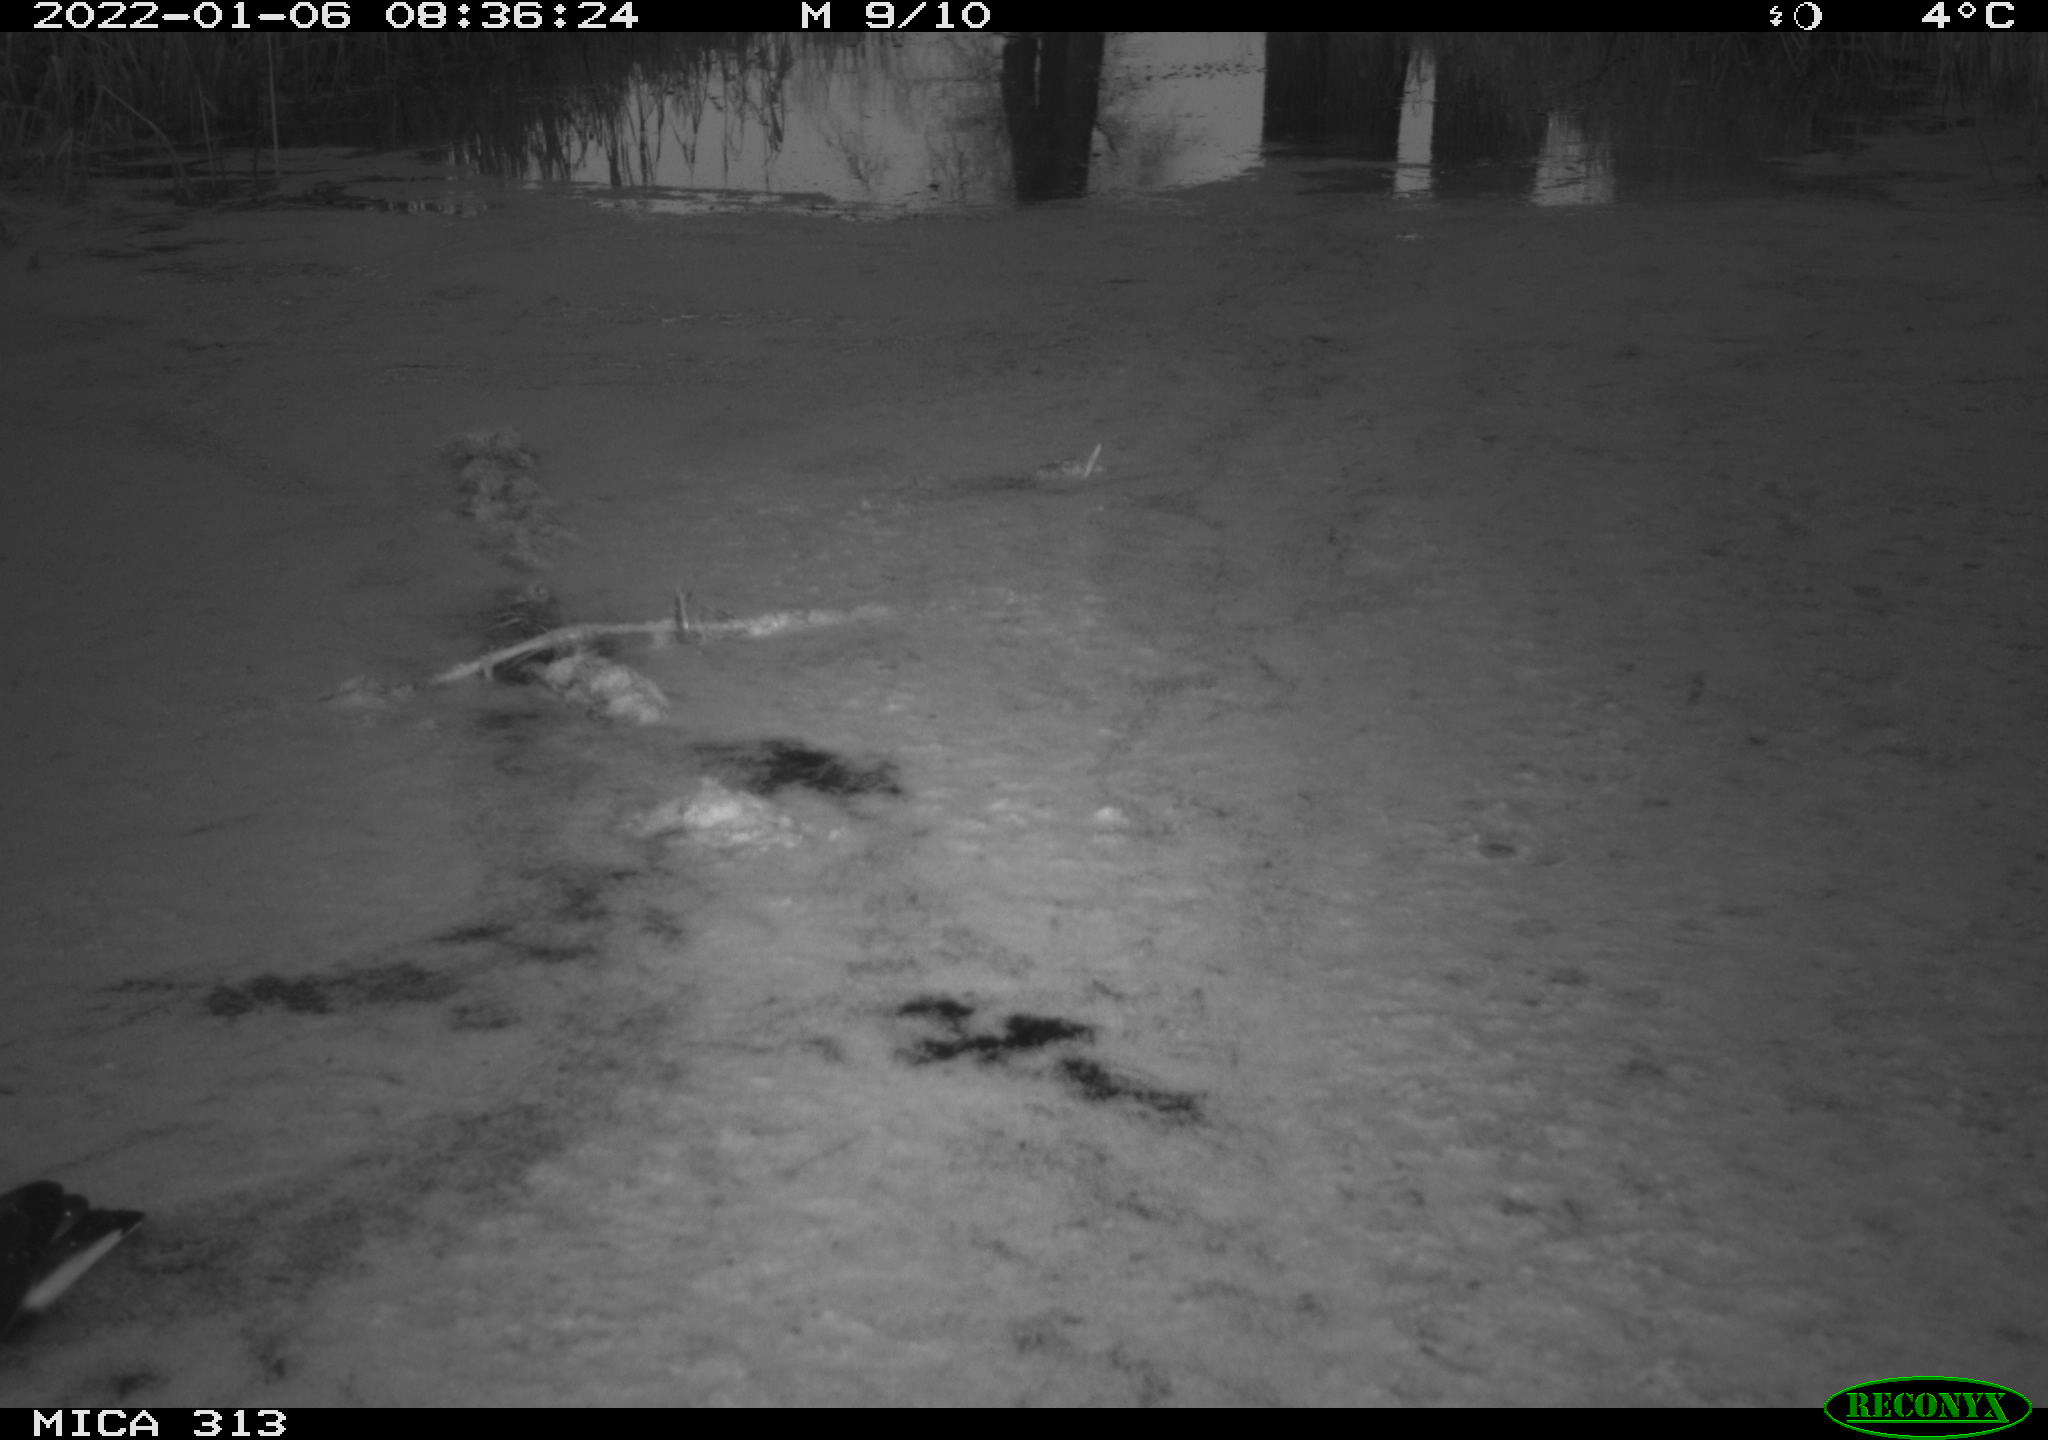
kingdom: Animalia
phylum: Chordata
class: Aves
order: Gruiformes
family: Rallidae
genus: Fulica
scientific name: Fulica atra
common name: Eurasian coot
